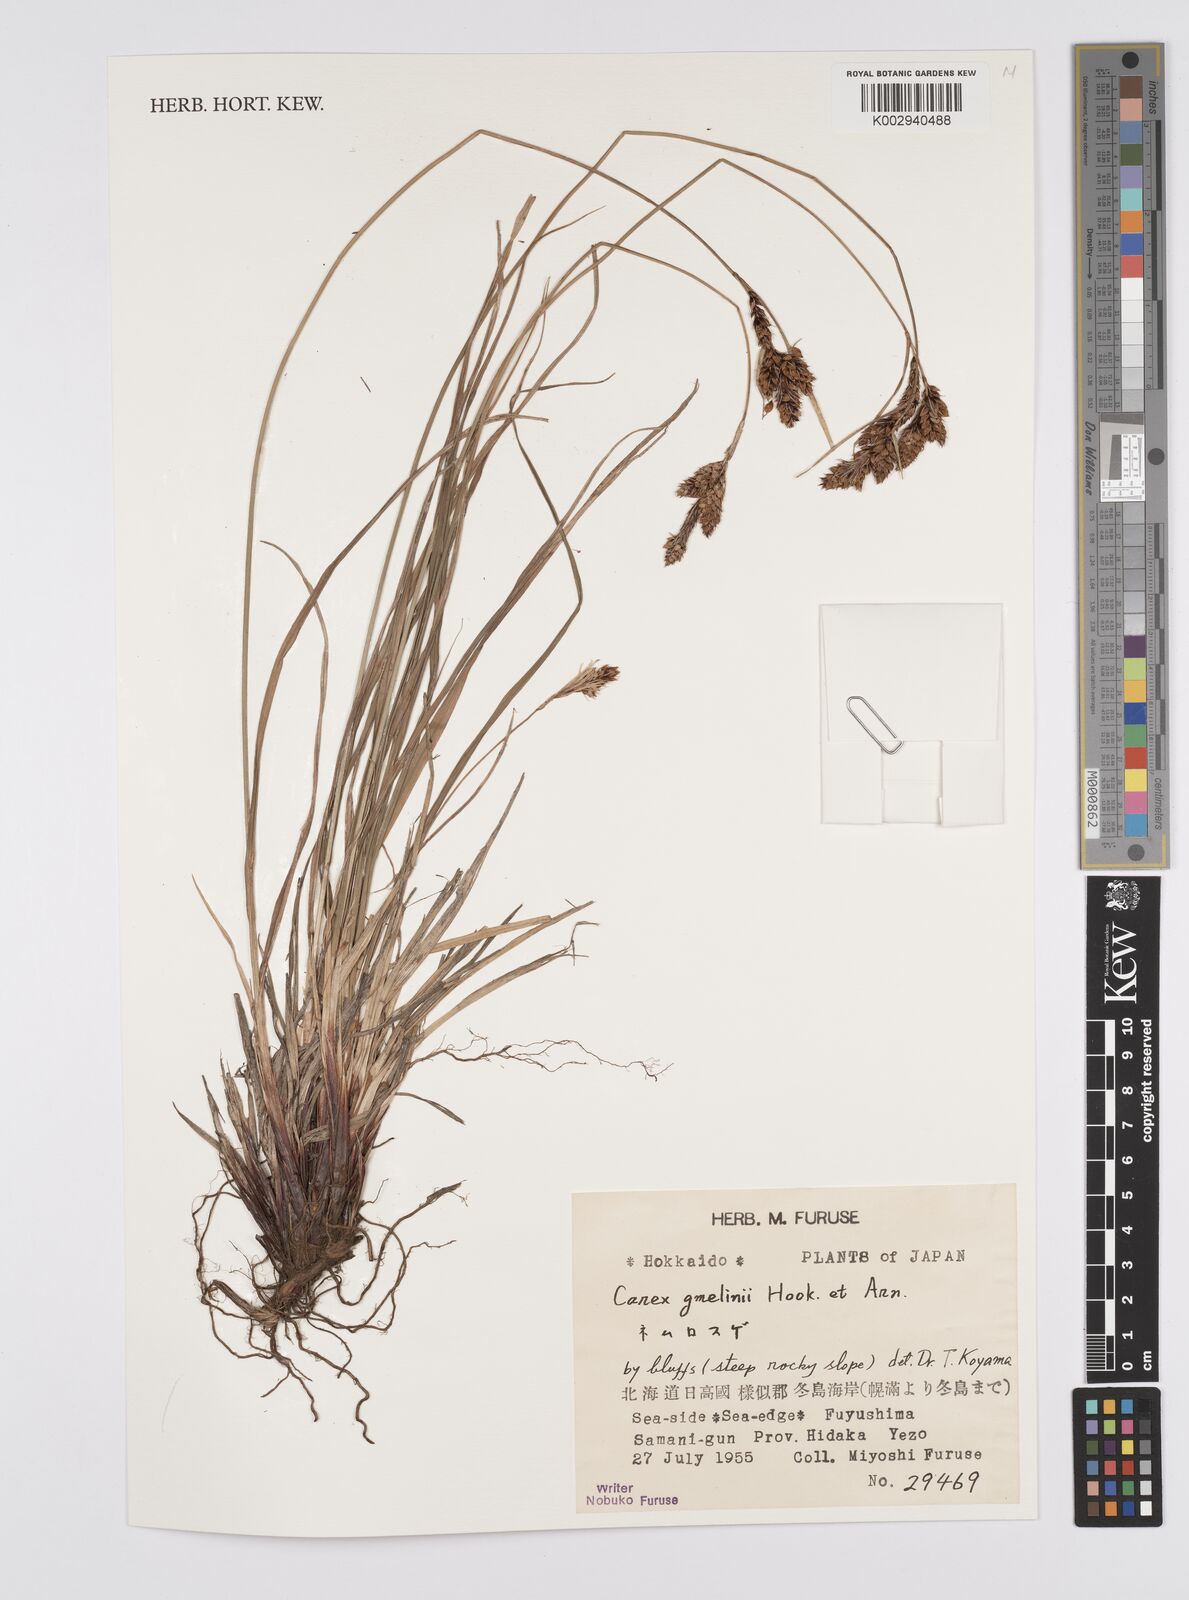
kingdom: Plantae
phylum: Tracheophyta
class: Liliopsida
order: Poales
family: Cyperaceae
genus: Carex
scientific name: Carex gmelinii
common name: Gmelin's sedge
